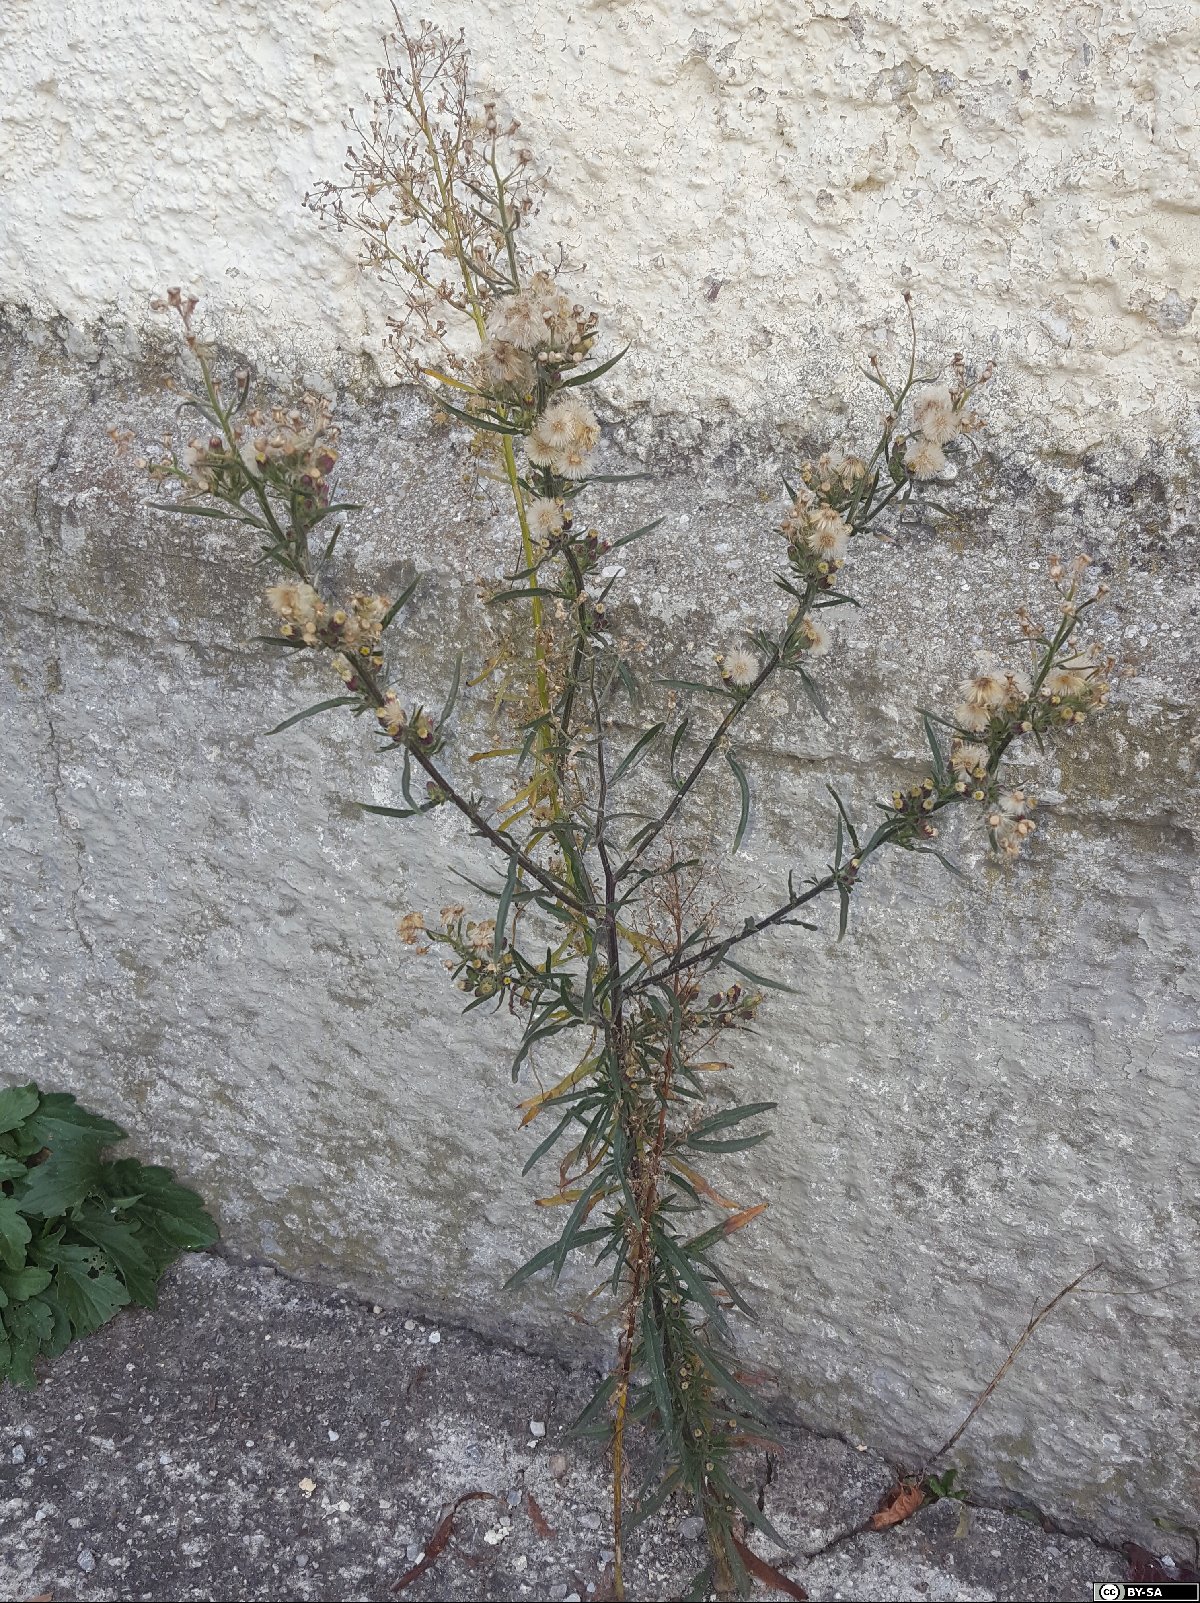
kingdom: Plantae
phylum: Tracheophyta
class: Magnoliopsida
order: Asterales
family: Asteraceae
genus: Erigeron
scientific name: Erigeron bonariensis
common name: Argentine fleabane
